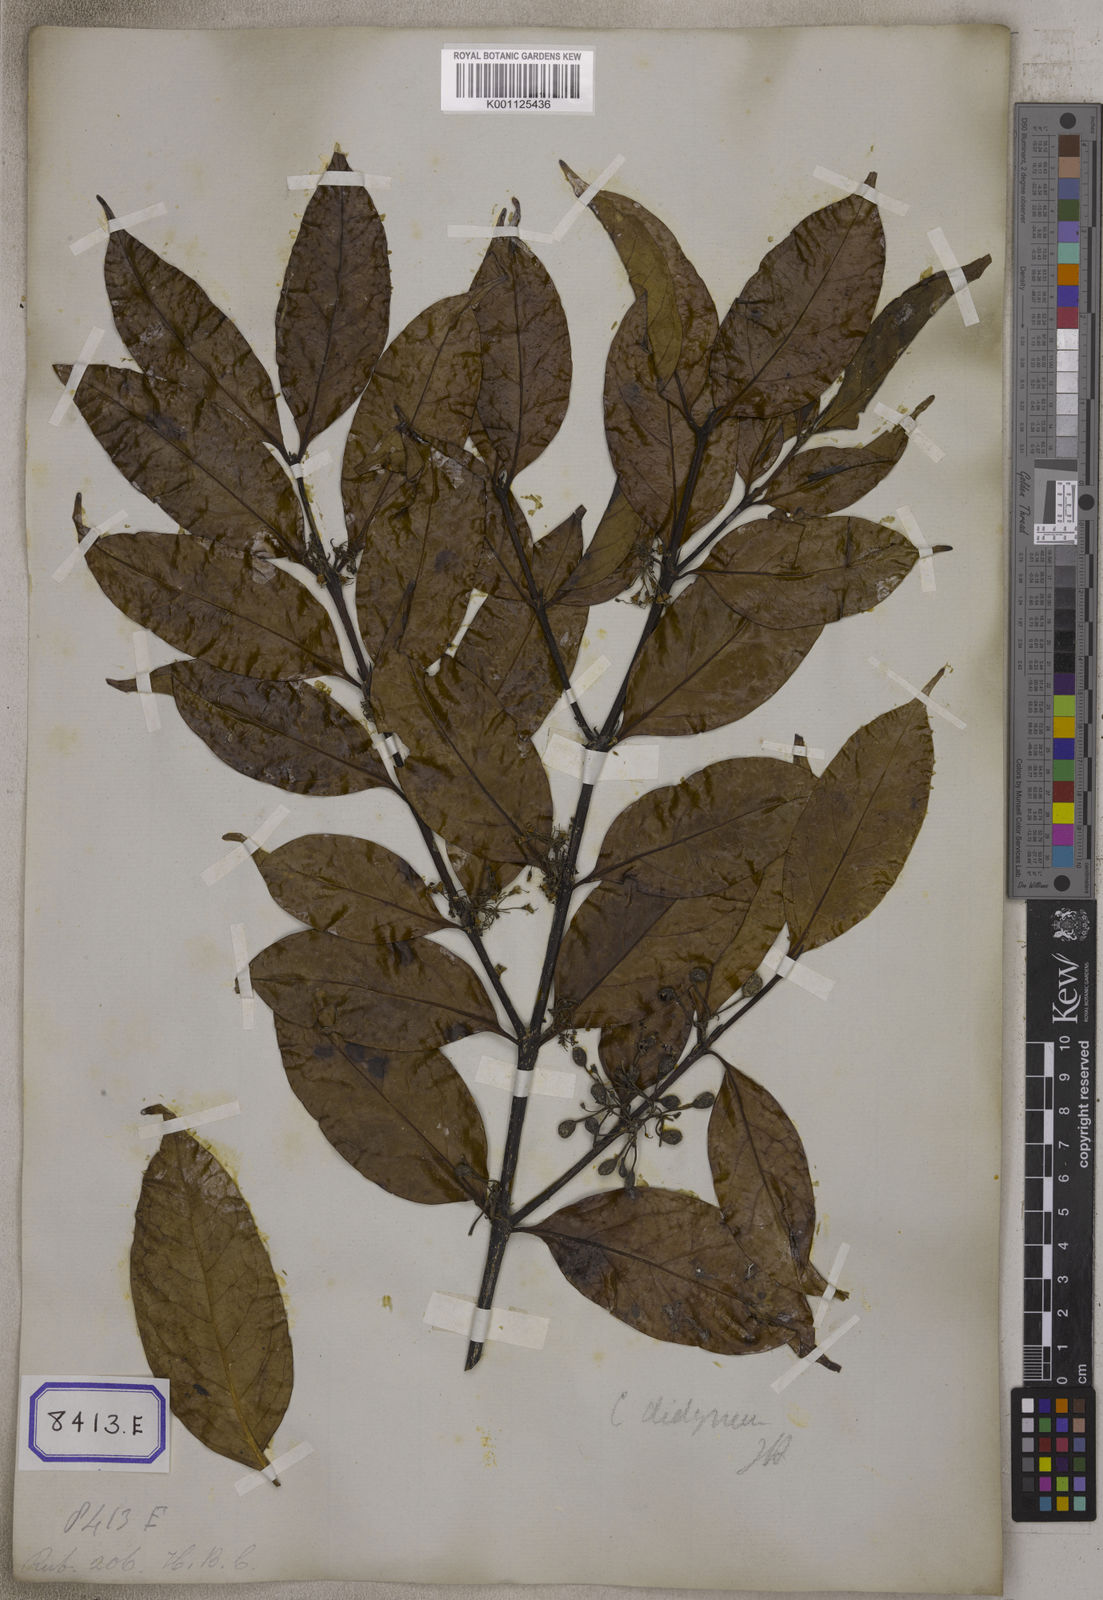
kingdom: Plantae
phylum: Tracheophyta
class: Magnoliopsida
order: Gentianales
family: Rubiaceae
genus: Psydrax
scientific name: Psydrax dicoccos
